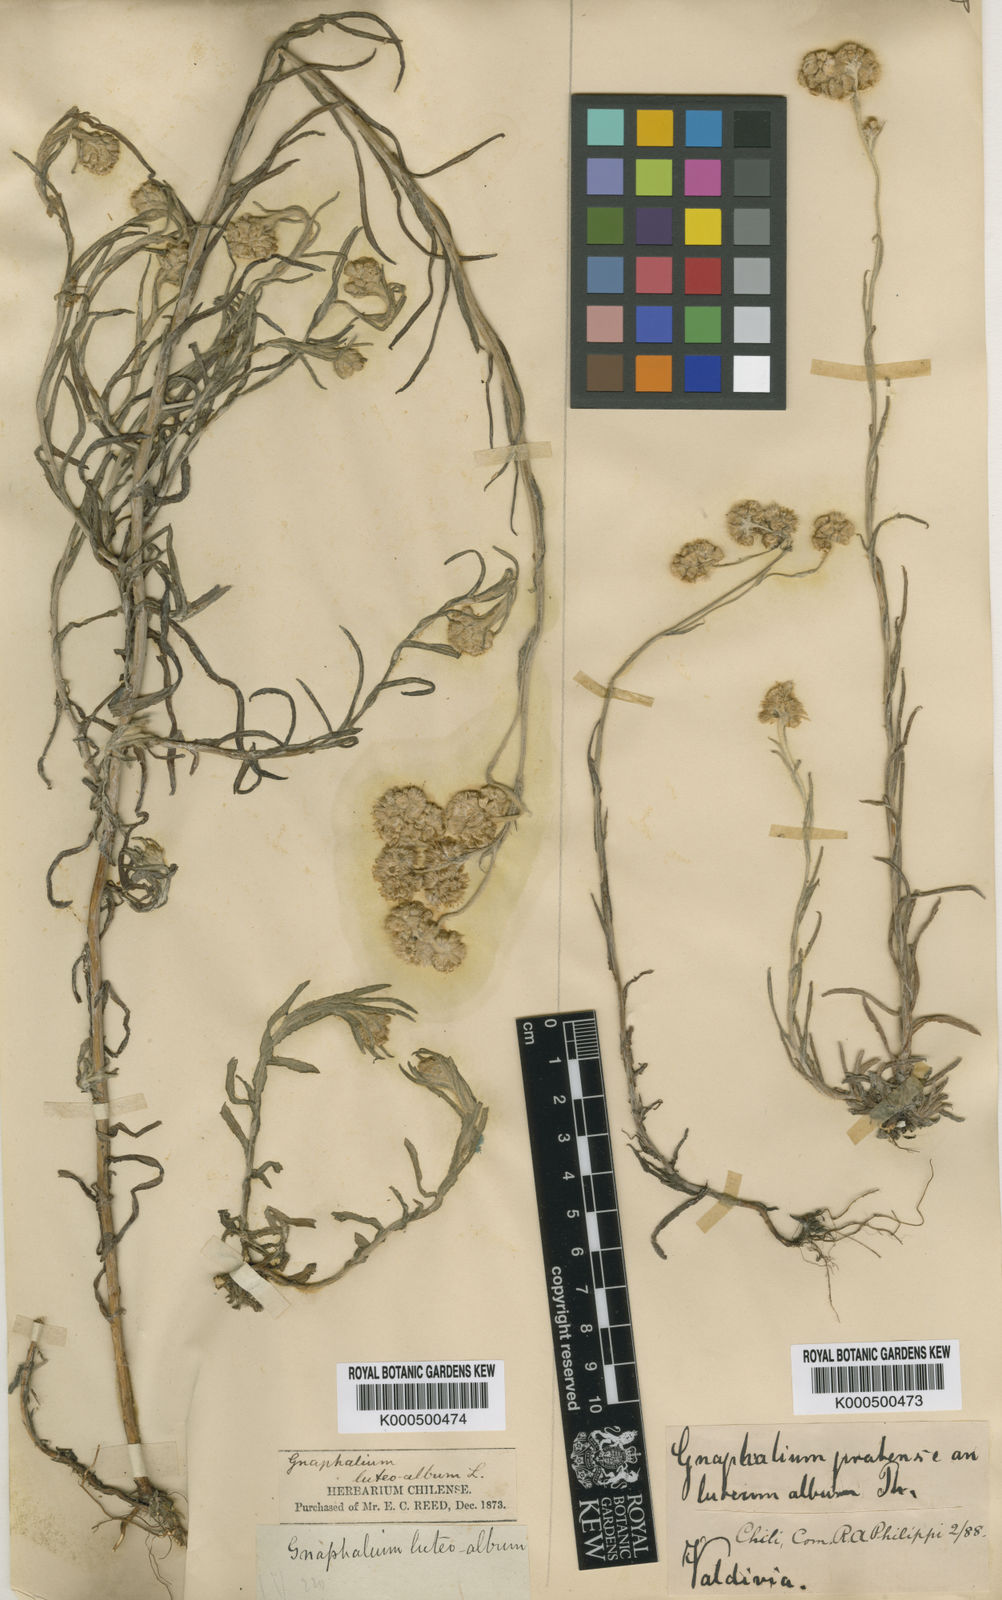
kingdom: Plantae
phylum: Tracheophyta
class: Magnoliopsida
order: Asterales
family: Asteraceae
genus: Helichrysum
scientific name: Helichrysum luteoalbum
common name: Daisy
